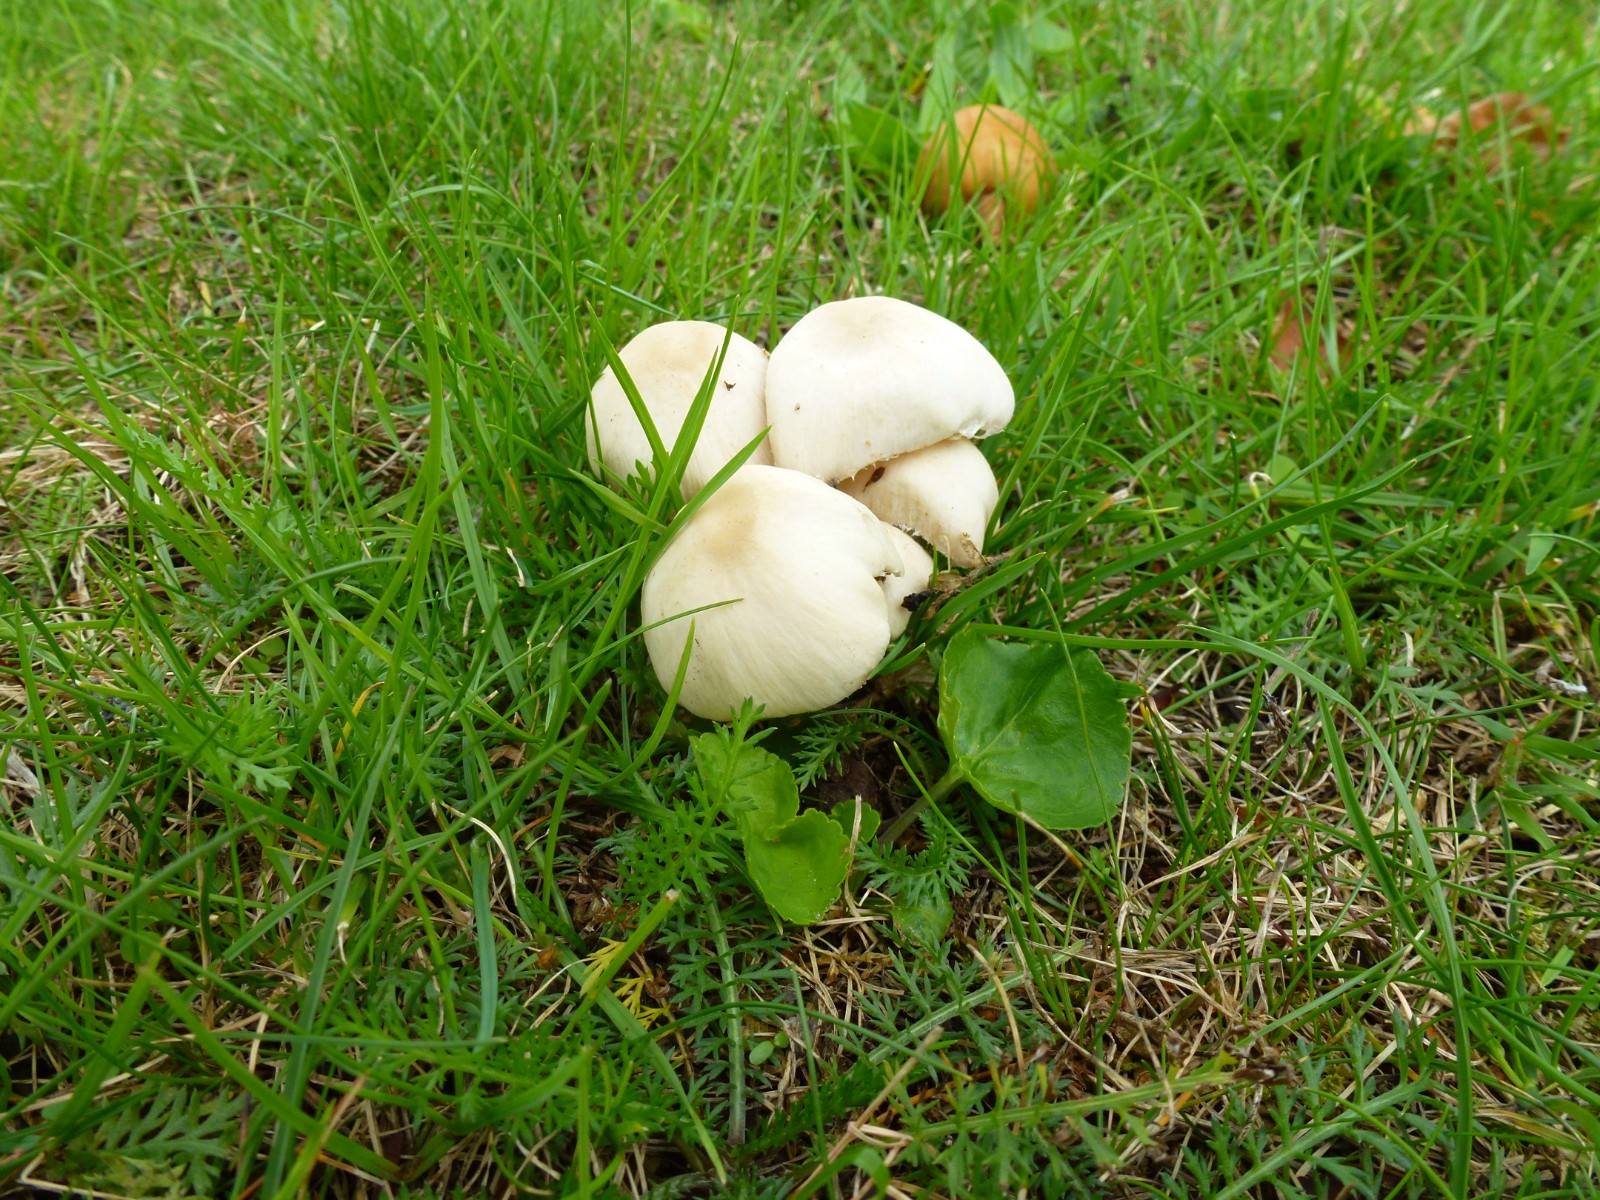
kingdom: Fungi
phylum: Basidiomycota
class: Agaricomycetes
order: Agaricales
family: Psathyrellaceae
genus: Candolleomyces
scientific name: Candolleomyces candolleanus
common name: Candolles mørkhat
